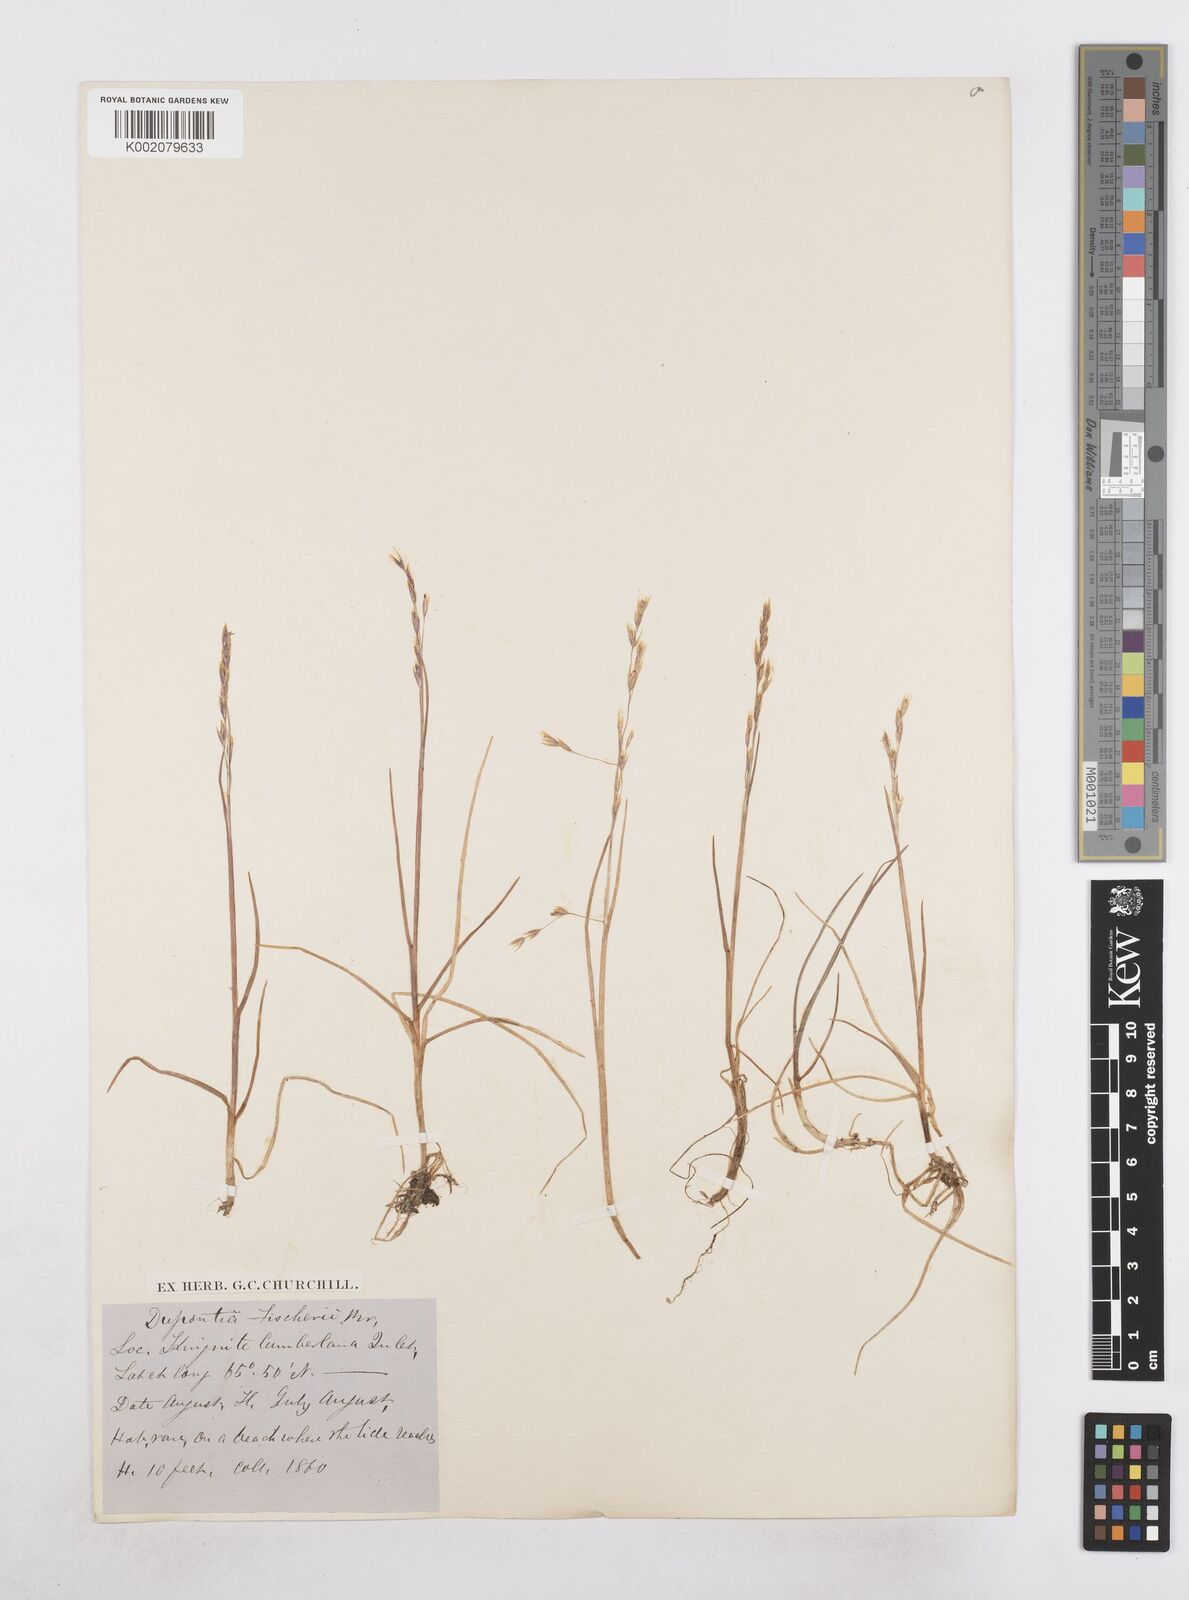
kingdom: Plantae
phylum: Tracheophyta
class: Liliopsida
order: Poales
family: Poaceae
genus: Dupontia
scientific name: Dupontia fisheri
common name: Tundra grass
